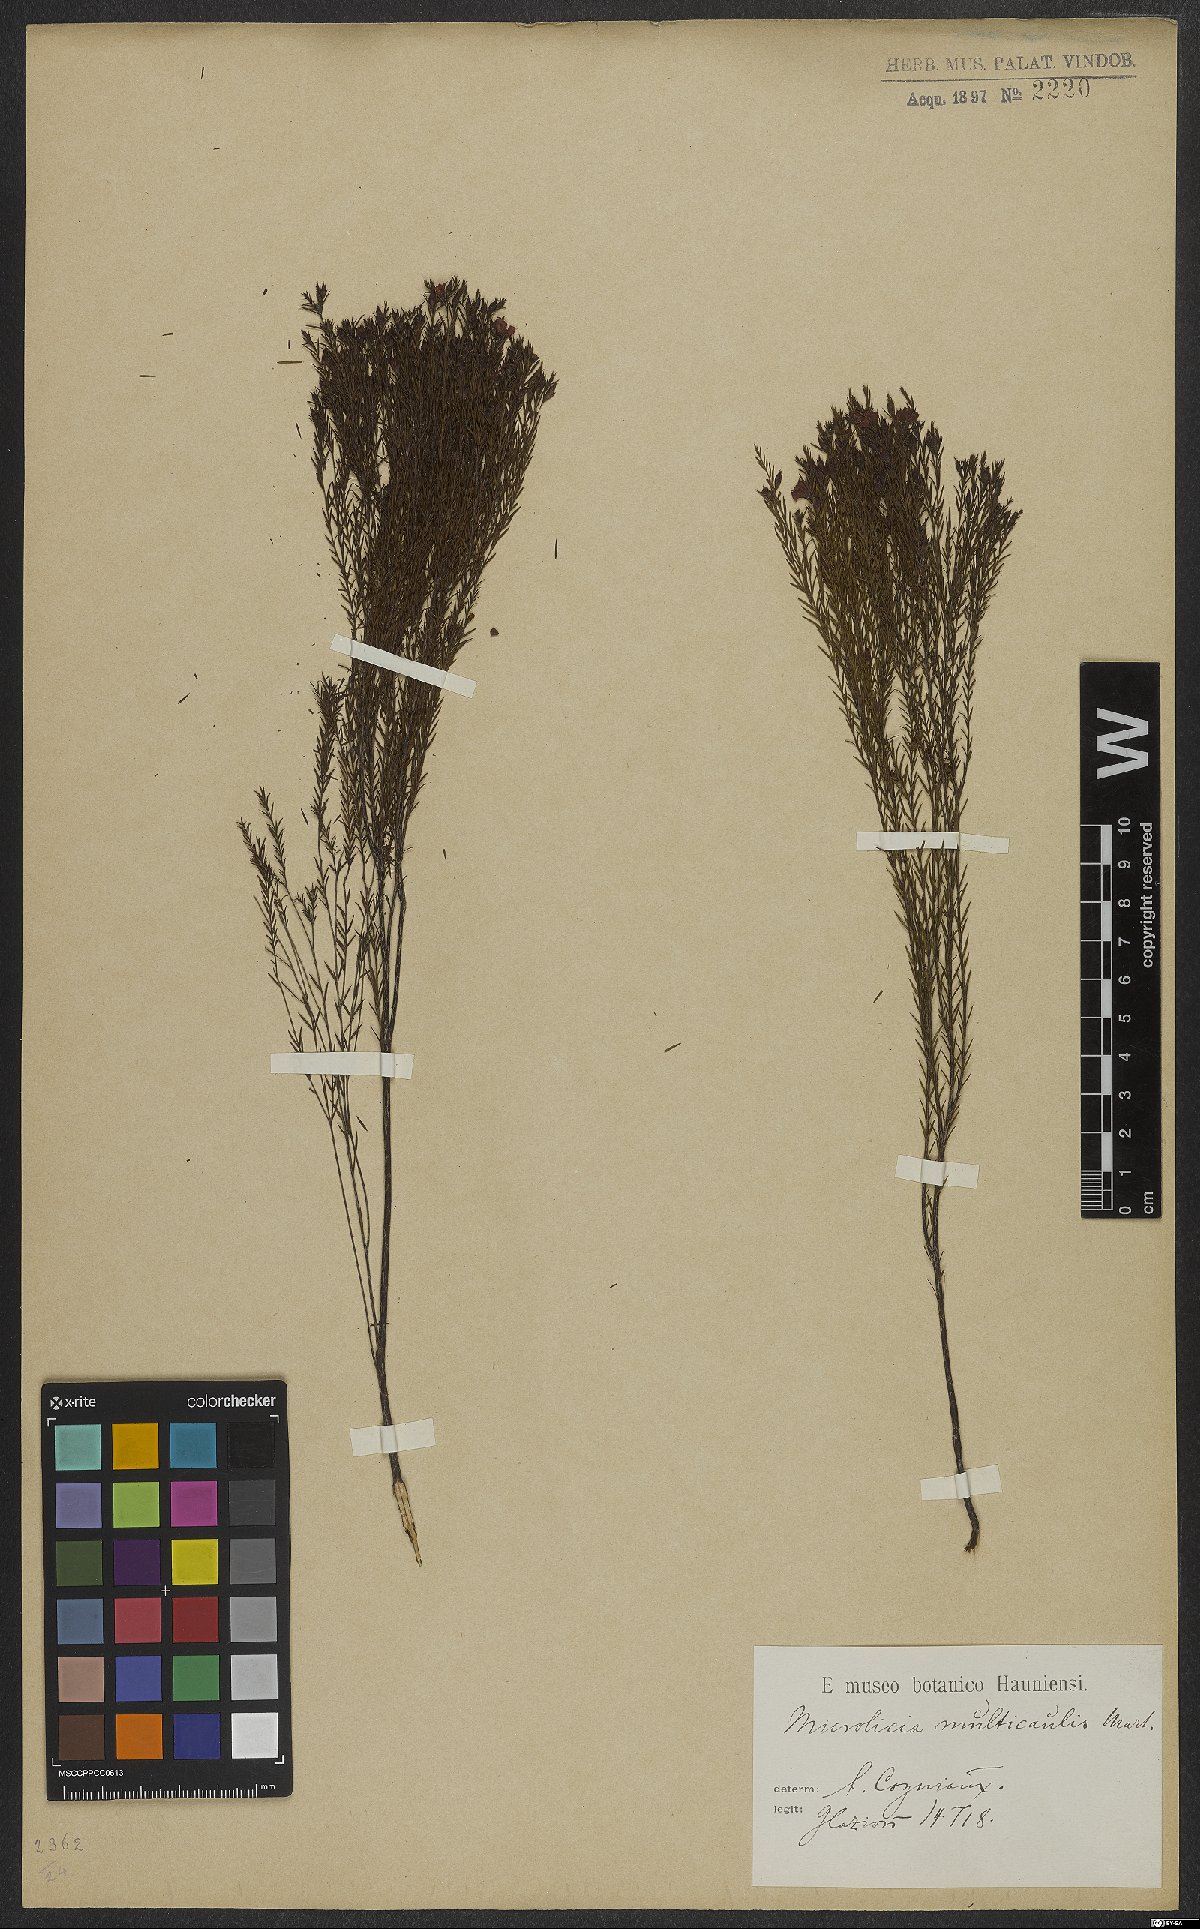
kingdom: Plantae
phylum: Tracheophyta
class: Magnoliopsida
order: Myrtales
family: Melastomataceae
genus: Microlicia
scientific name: Microlicia multicaulis
